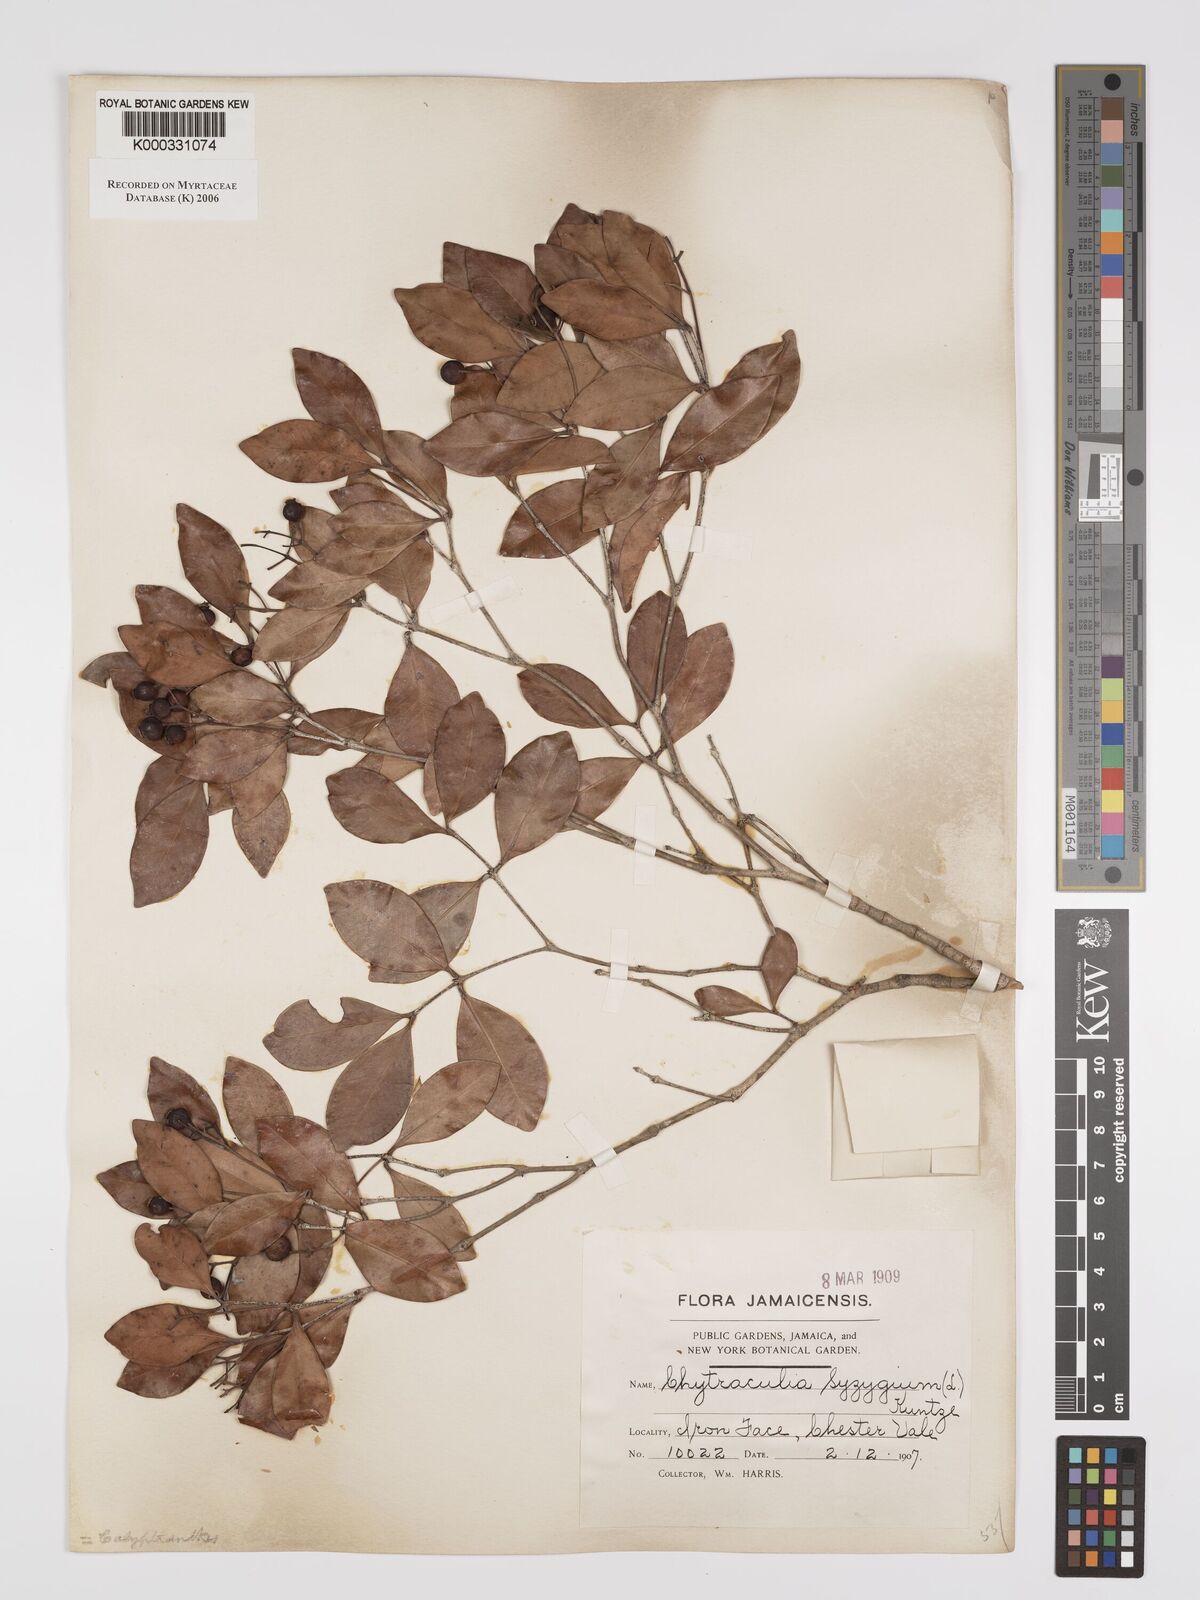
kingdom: Plantae
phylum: Tracheophyta
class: Magnoliopsida
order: Myrtales
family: Myrtaceae
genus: Myrcia
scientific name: Myrcia chytraculia
